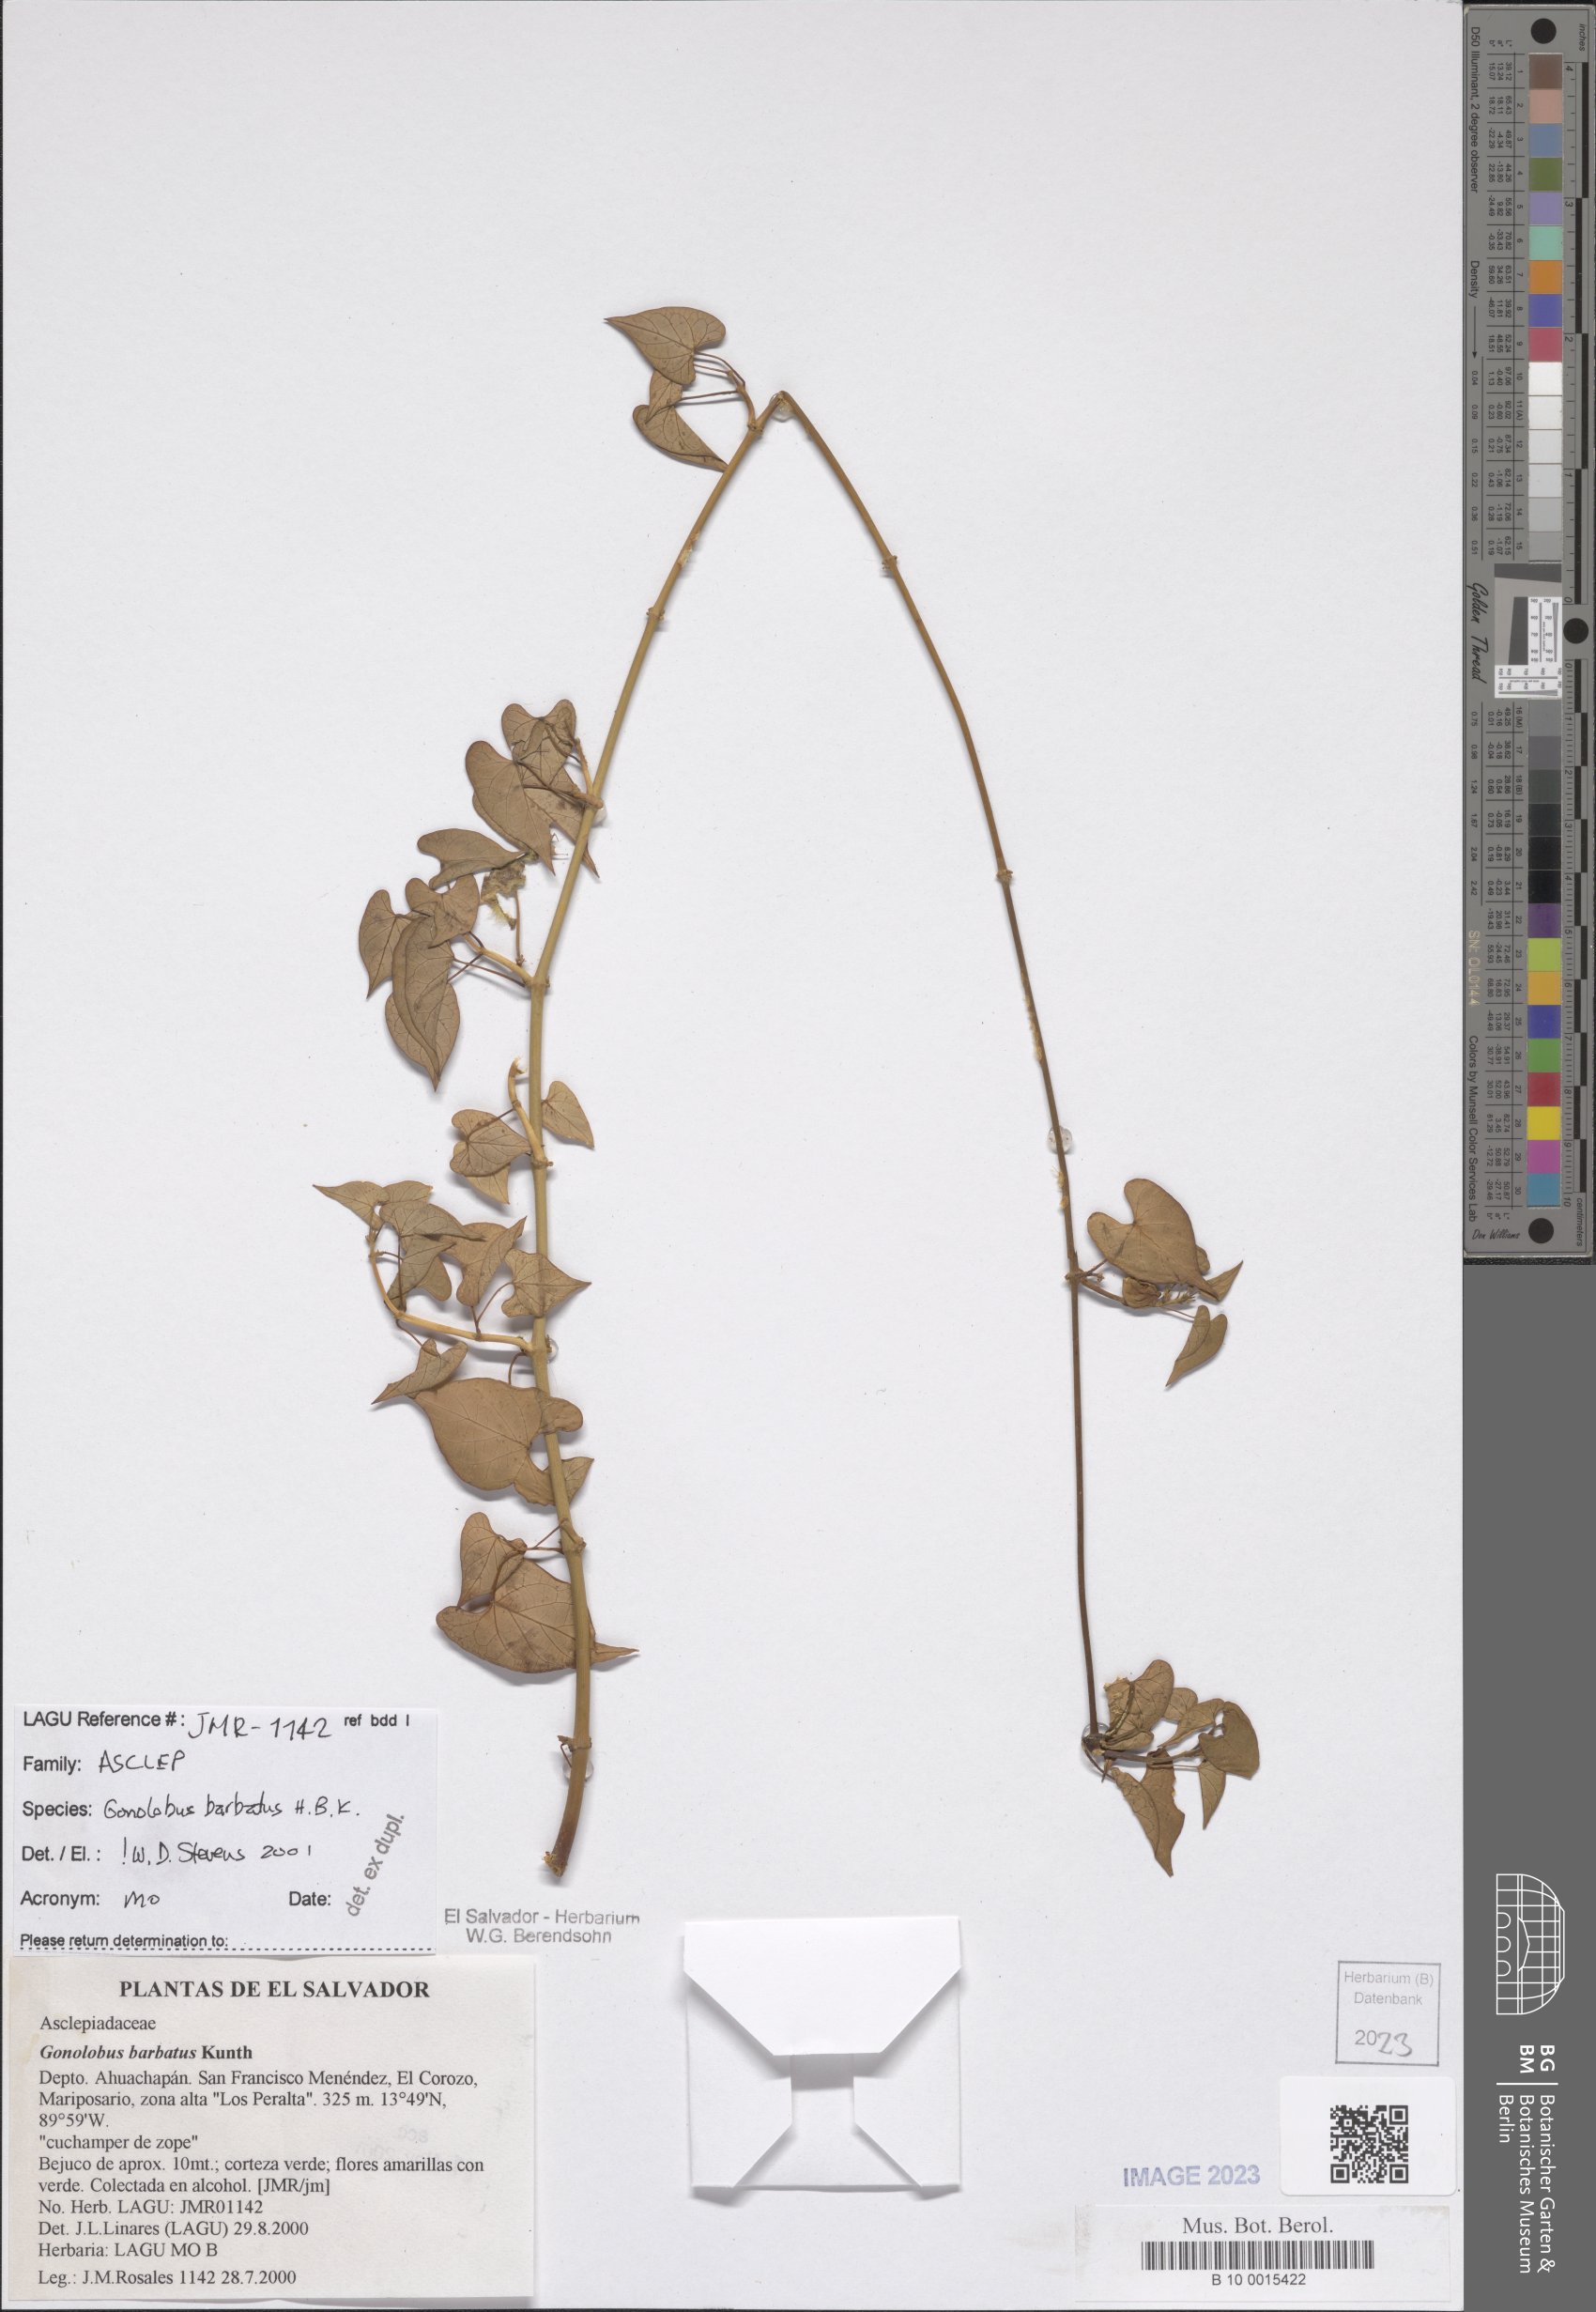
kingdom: Plantae
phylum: Tracheophyta
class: Magnoliopsida
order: Gentianales
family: Apocynaceae
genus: Gonolobus
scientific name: Gonolobus barbatus
